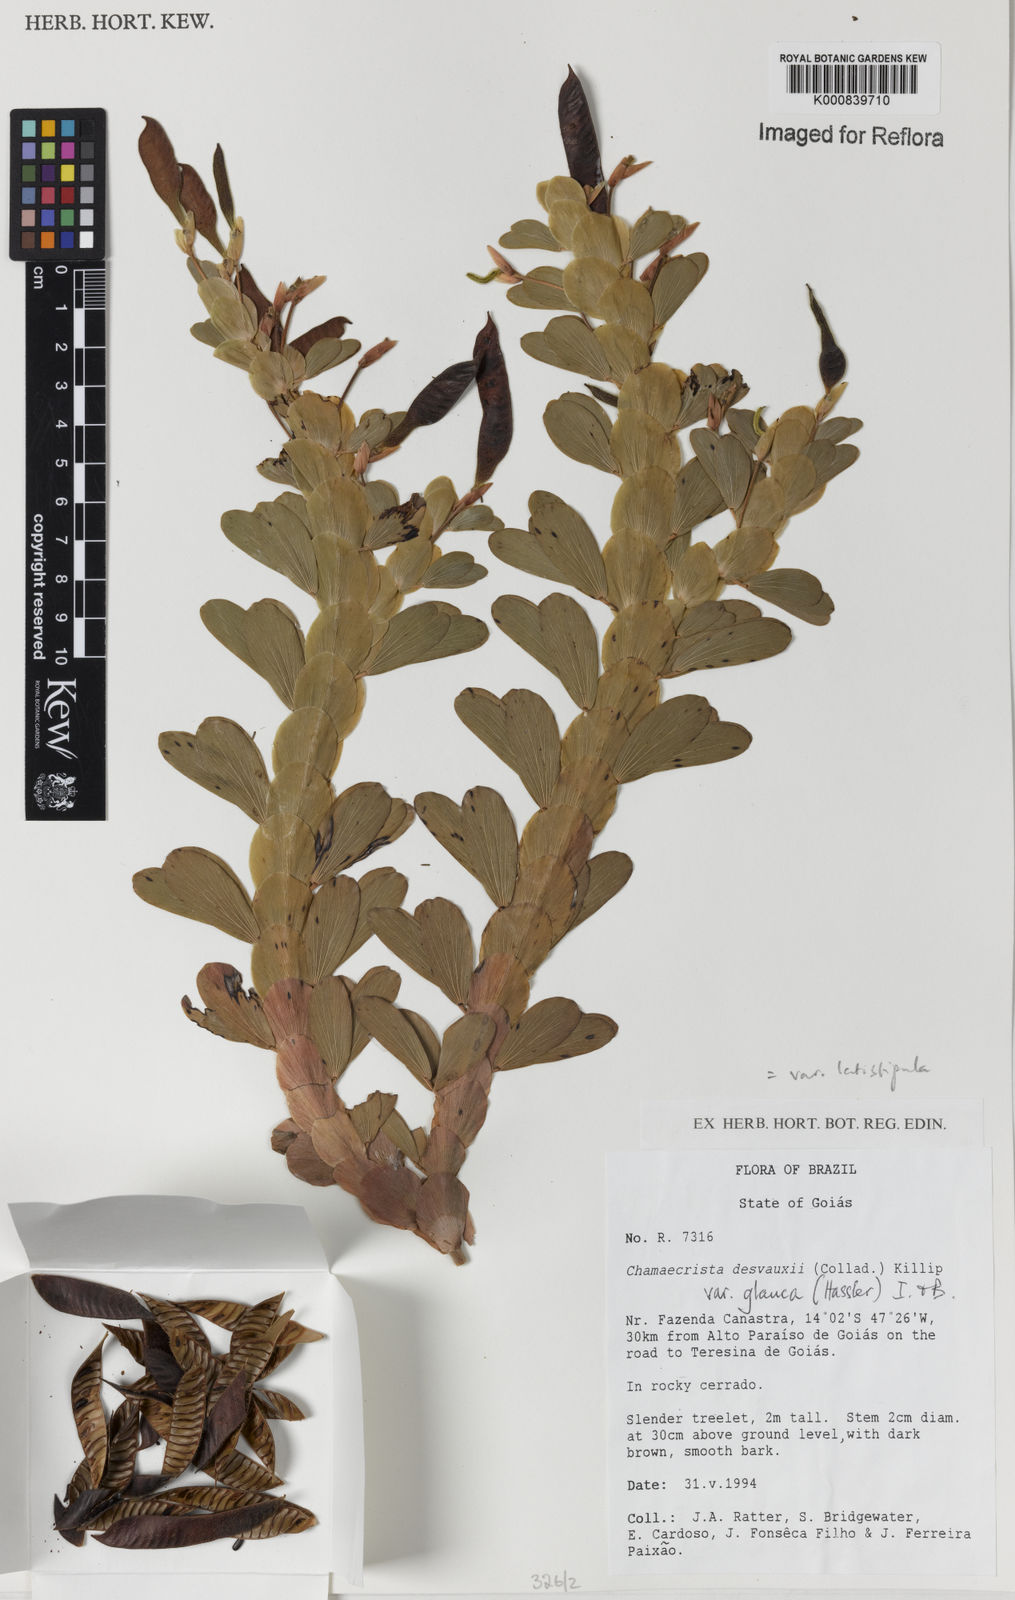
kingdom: Plantae
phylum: Tracheophyta
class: Magnoliopsida
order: Fabales
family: Fabaceae
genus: Chamaecrista
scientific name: Chamaecrista desvauxii
